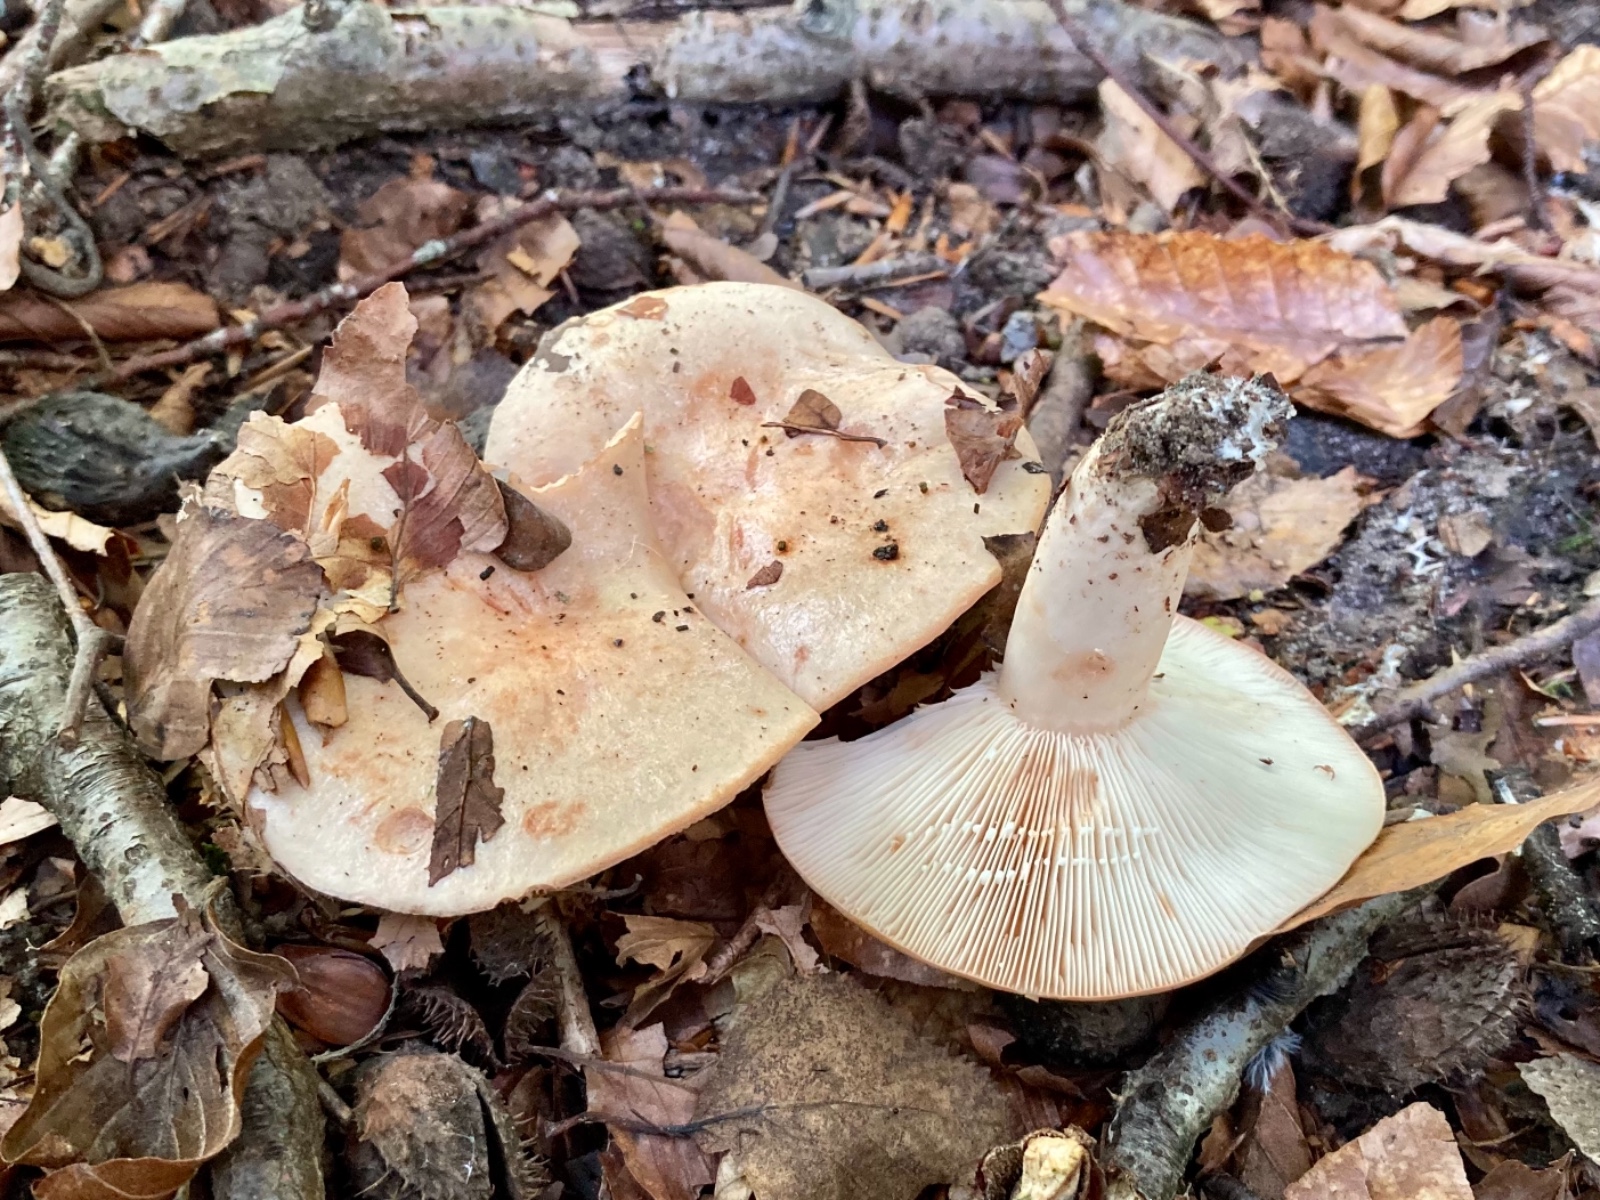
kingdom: Fungi
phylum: Basidiomycota
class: Agaricomycetes
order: Russulales
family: Russulaceae
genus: Lactarius
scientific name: Lactarius pallidus
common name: bleg mælkehat
